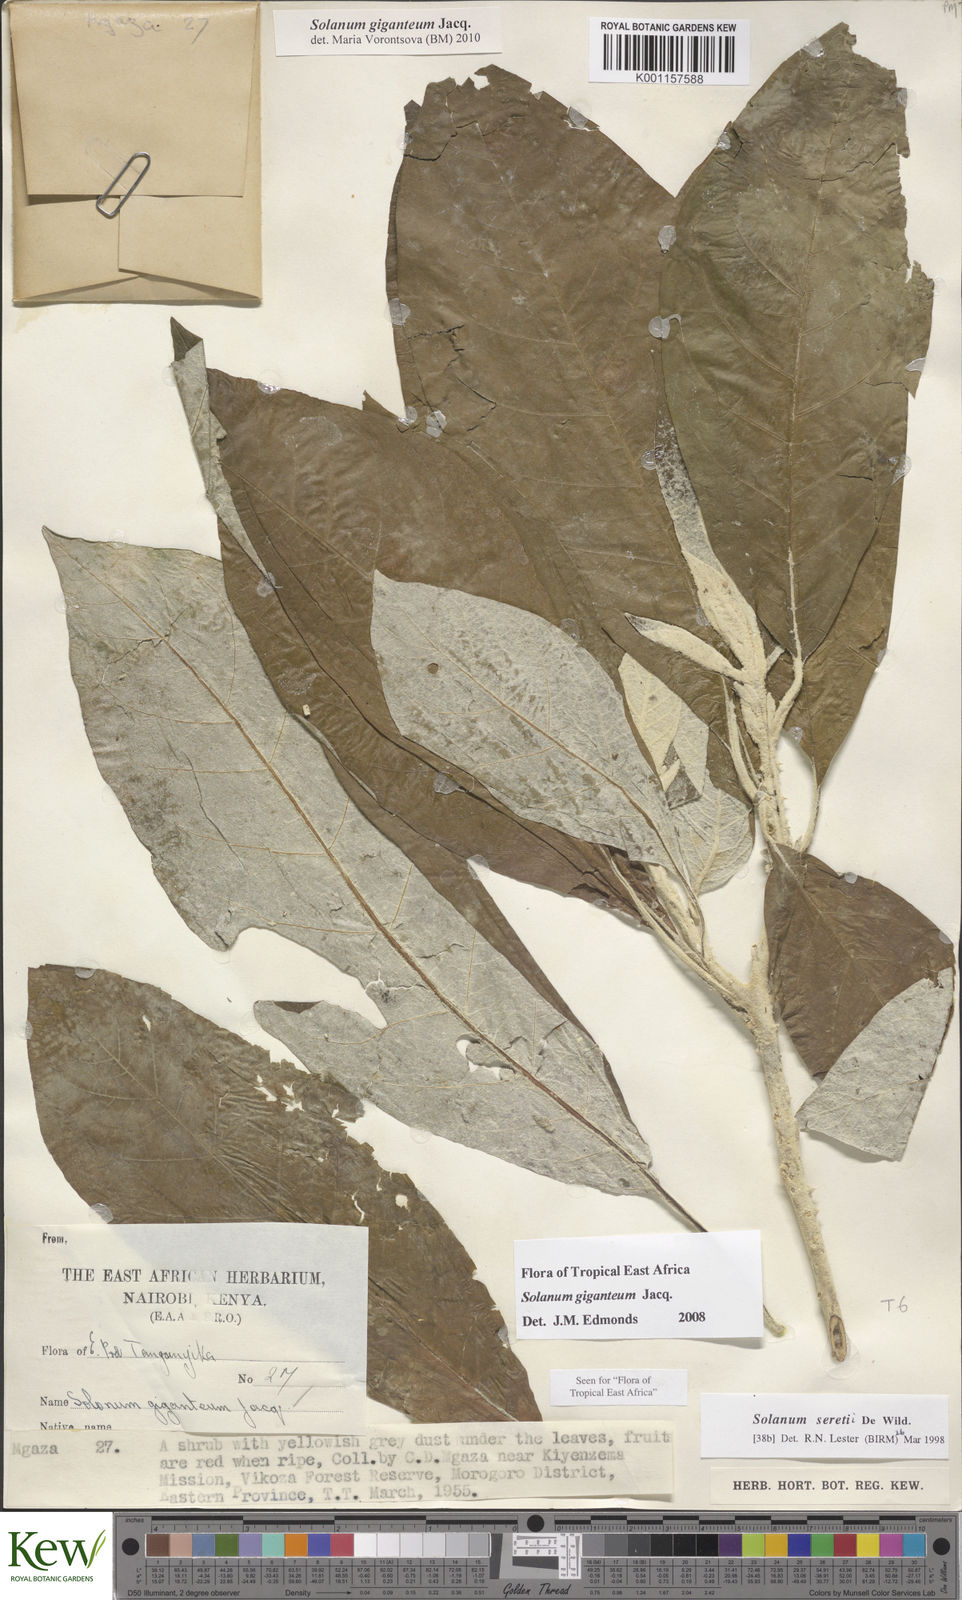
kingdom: Plantae
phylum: Tracheophyta
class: Magnoliopsida
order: Solanales
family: Solanaceae
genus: Solanum
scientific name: Solanum giganteum
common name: Healing-leaf-tree
